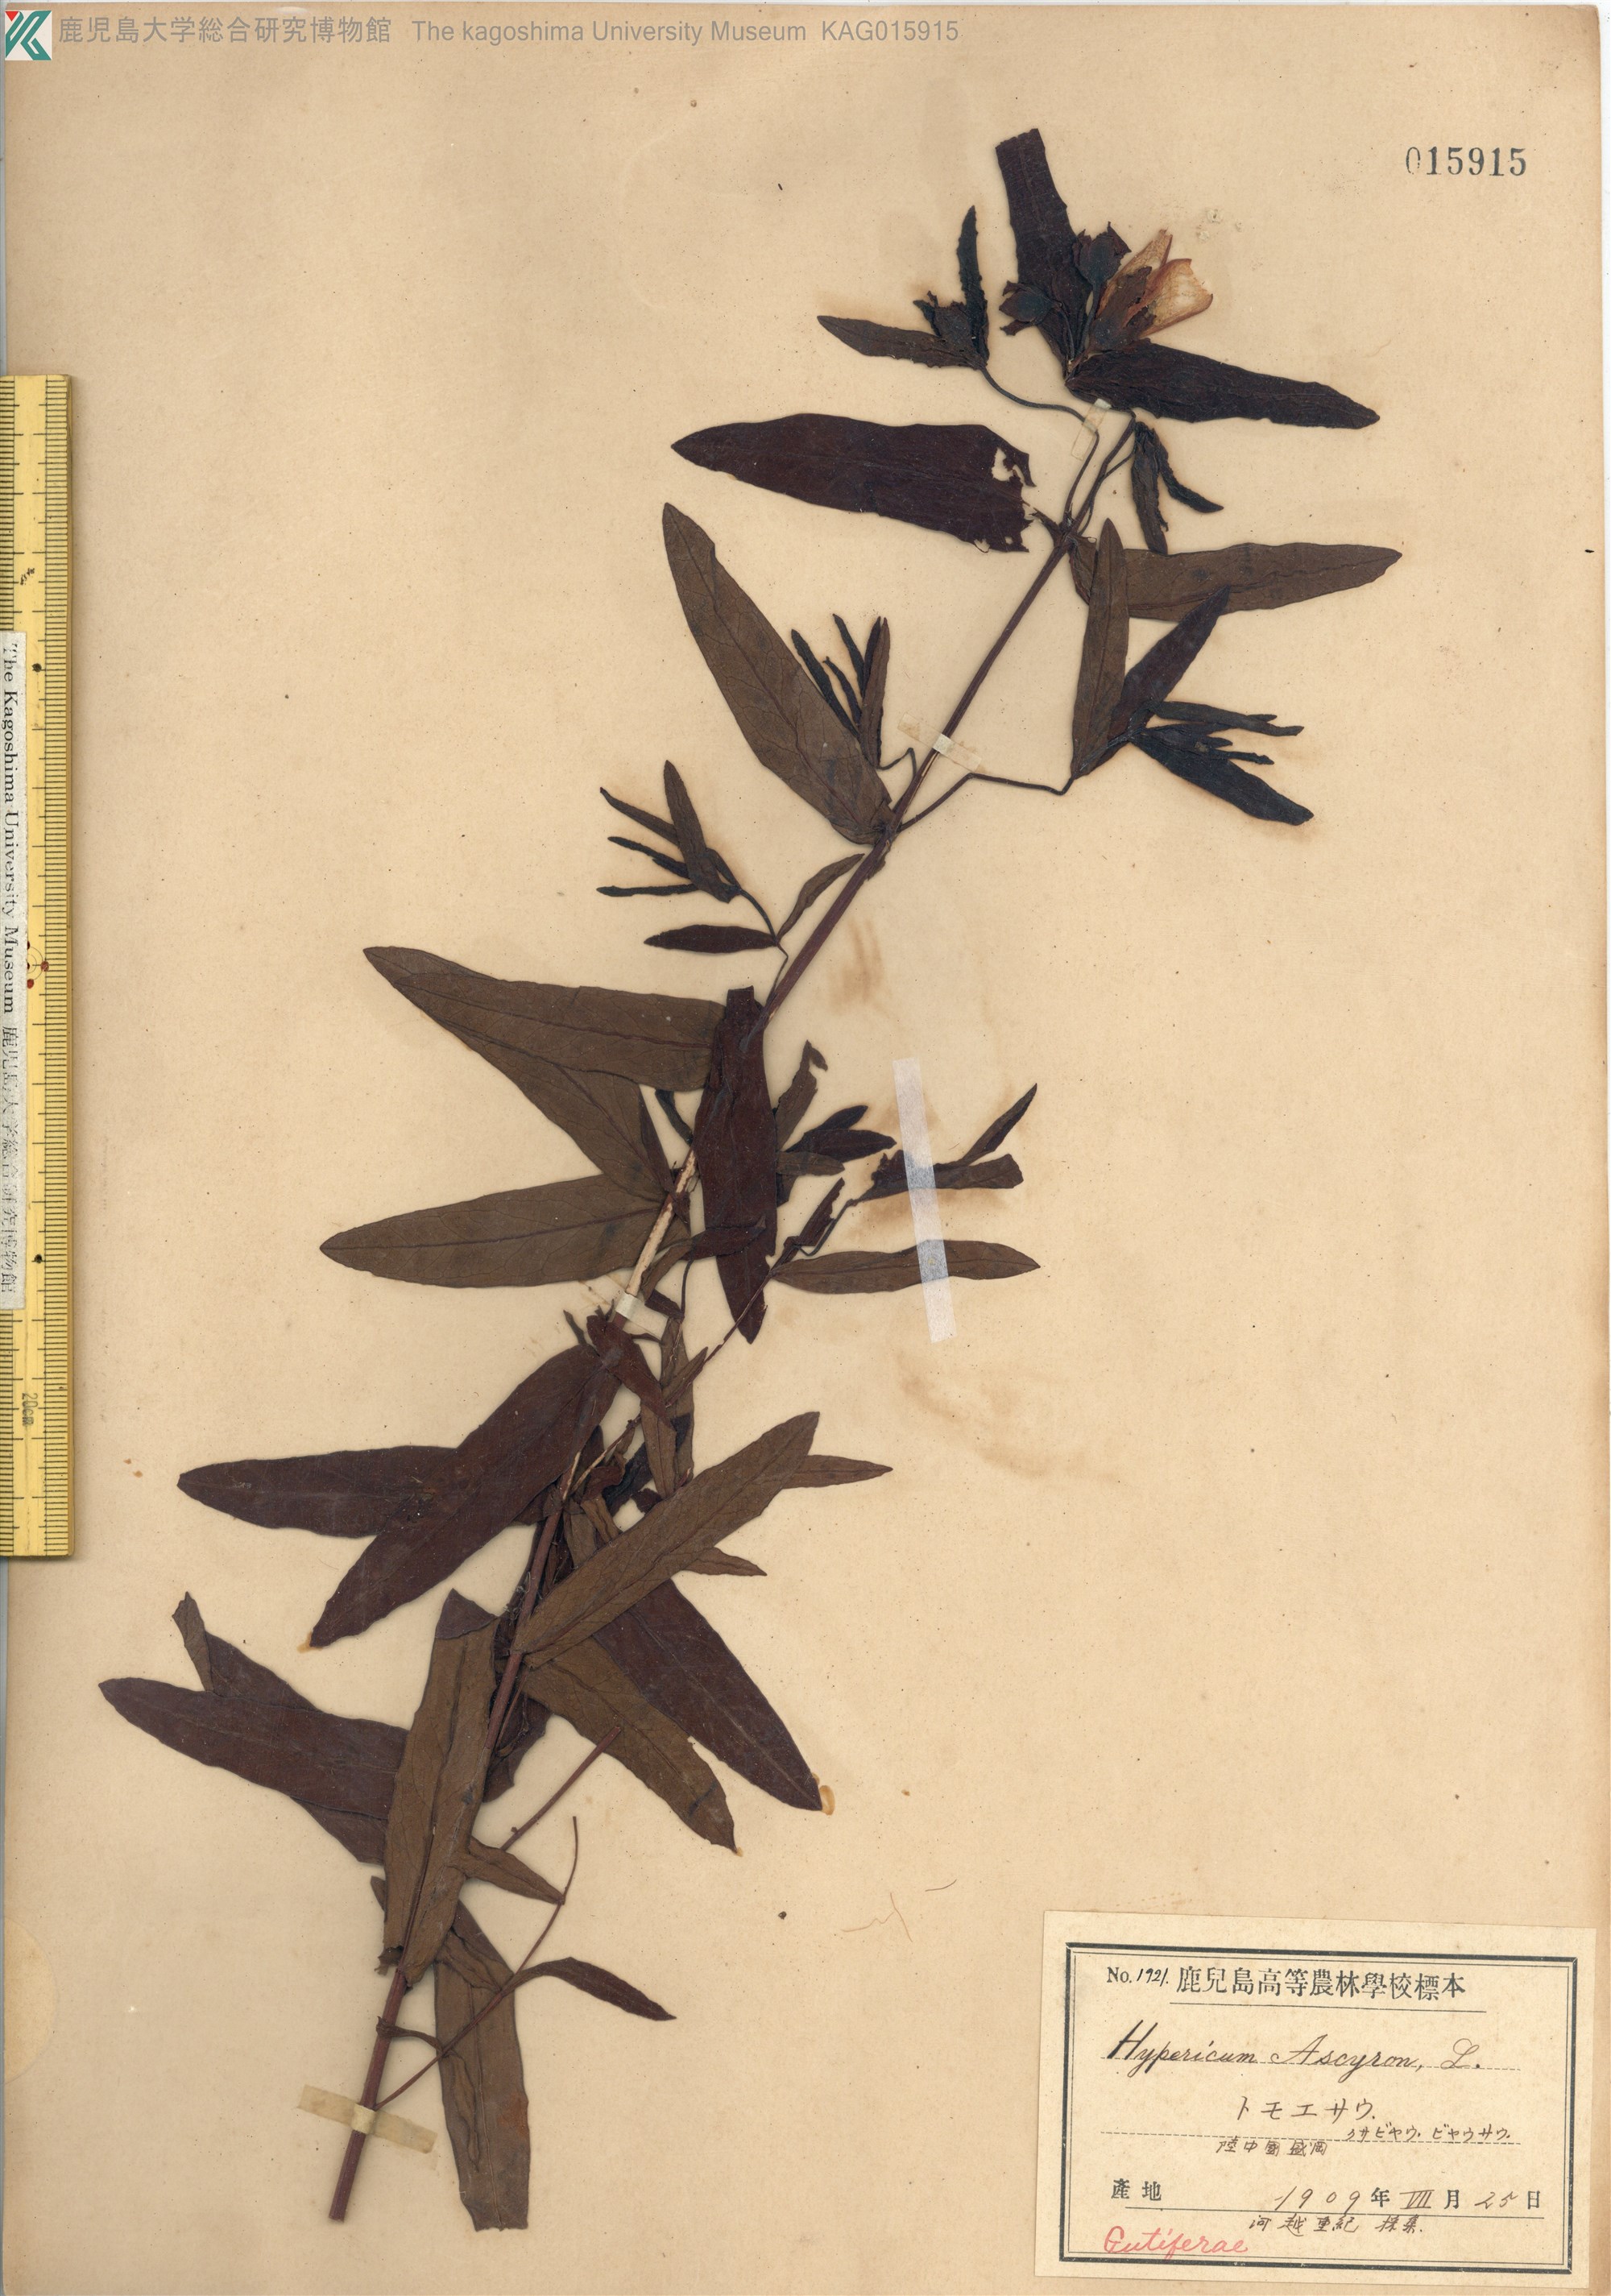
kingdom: Plantae
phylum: Tracheophyta
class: Magnoliopsida
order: Malpighiales
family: Hypericaceae
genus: Hypericum
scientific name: Hypericum ascyron
